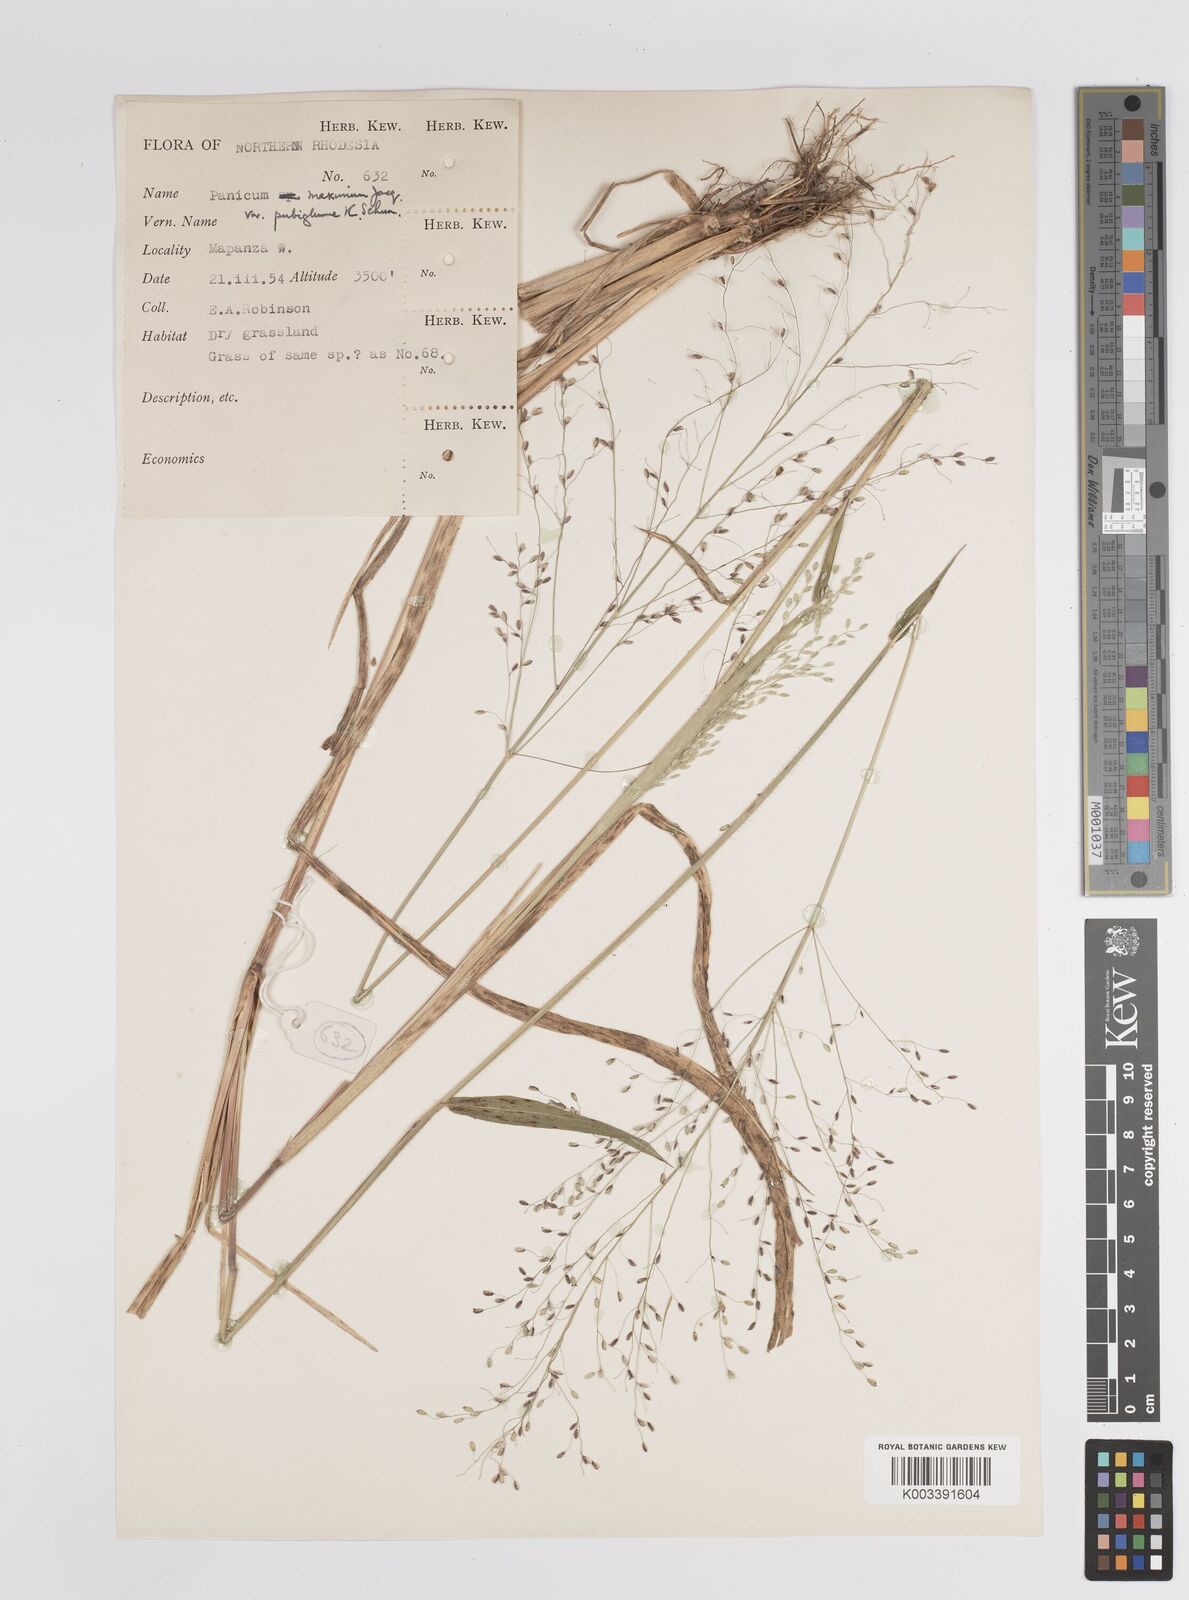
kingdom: Plantae
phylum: Tracheophyta
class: Liliopsida
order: Poales
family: Poaceae
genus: Megathyrsus
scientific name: Megathyrsus maximus
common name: Guineagrass
